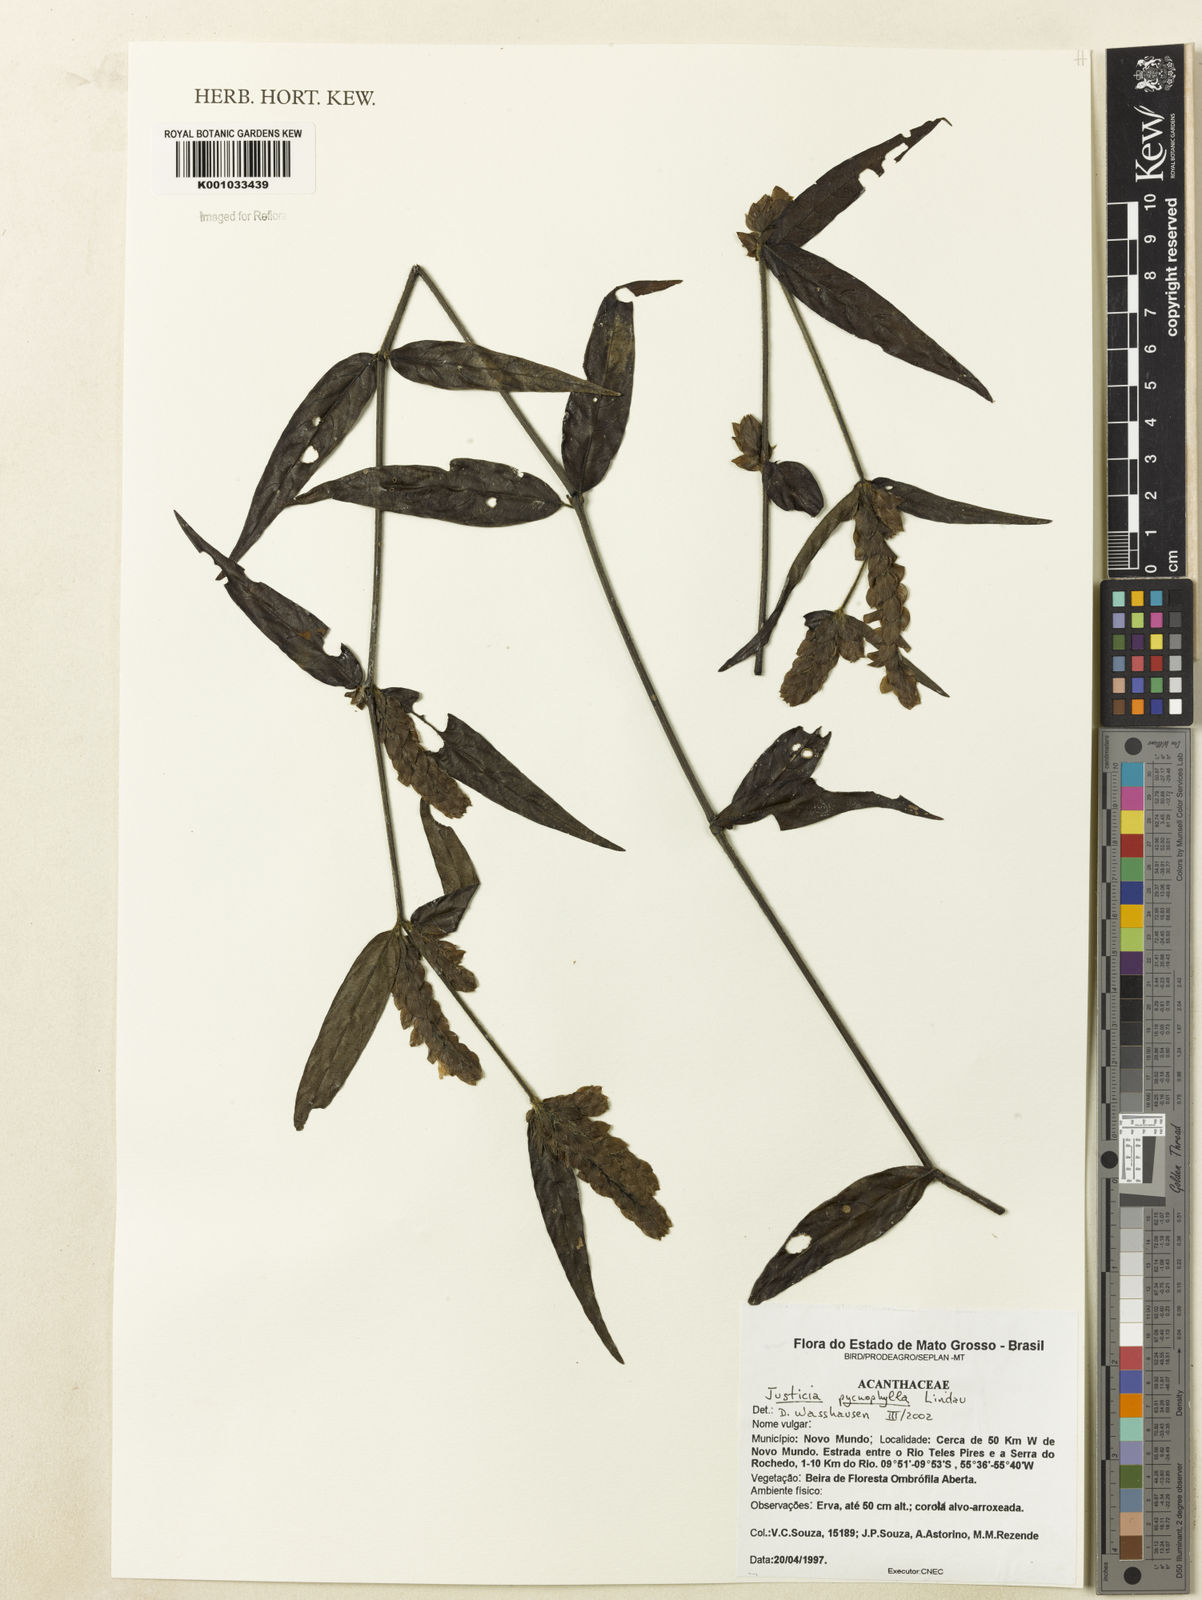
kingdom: Plantae
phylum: Tracheophyta
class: Magnoliopsida
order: Lamiales
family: Acanthaceae
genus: Justicia
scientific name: Justicia pycnophylla
